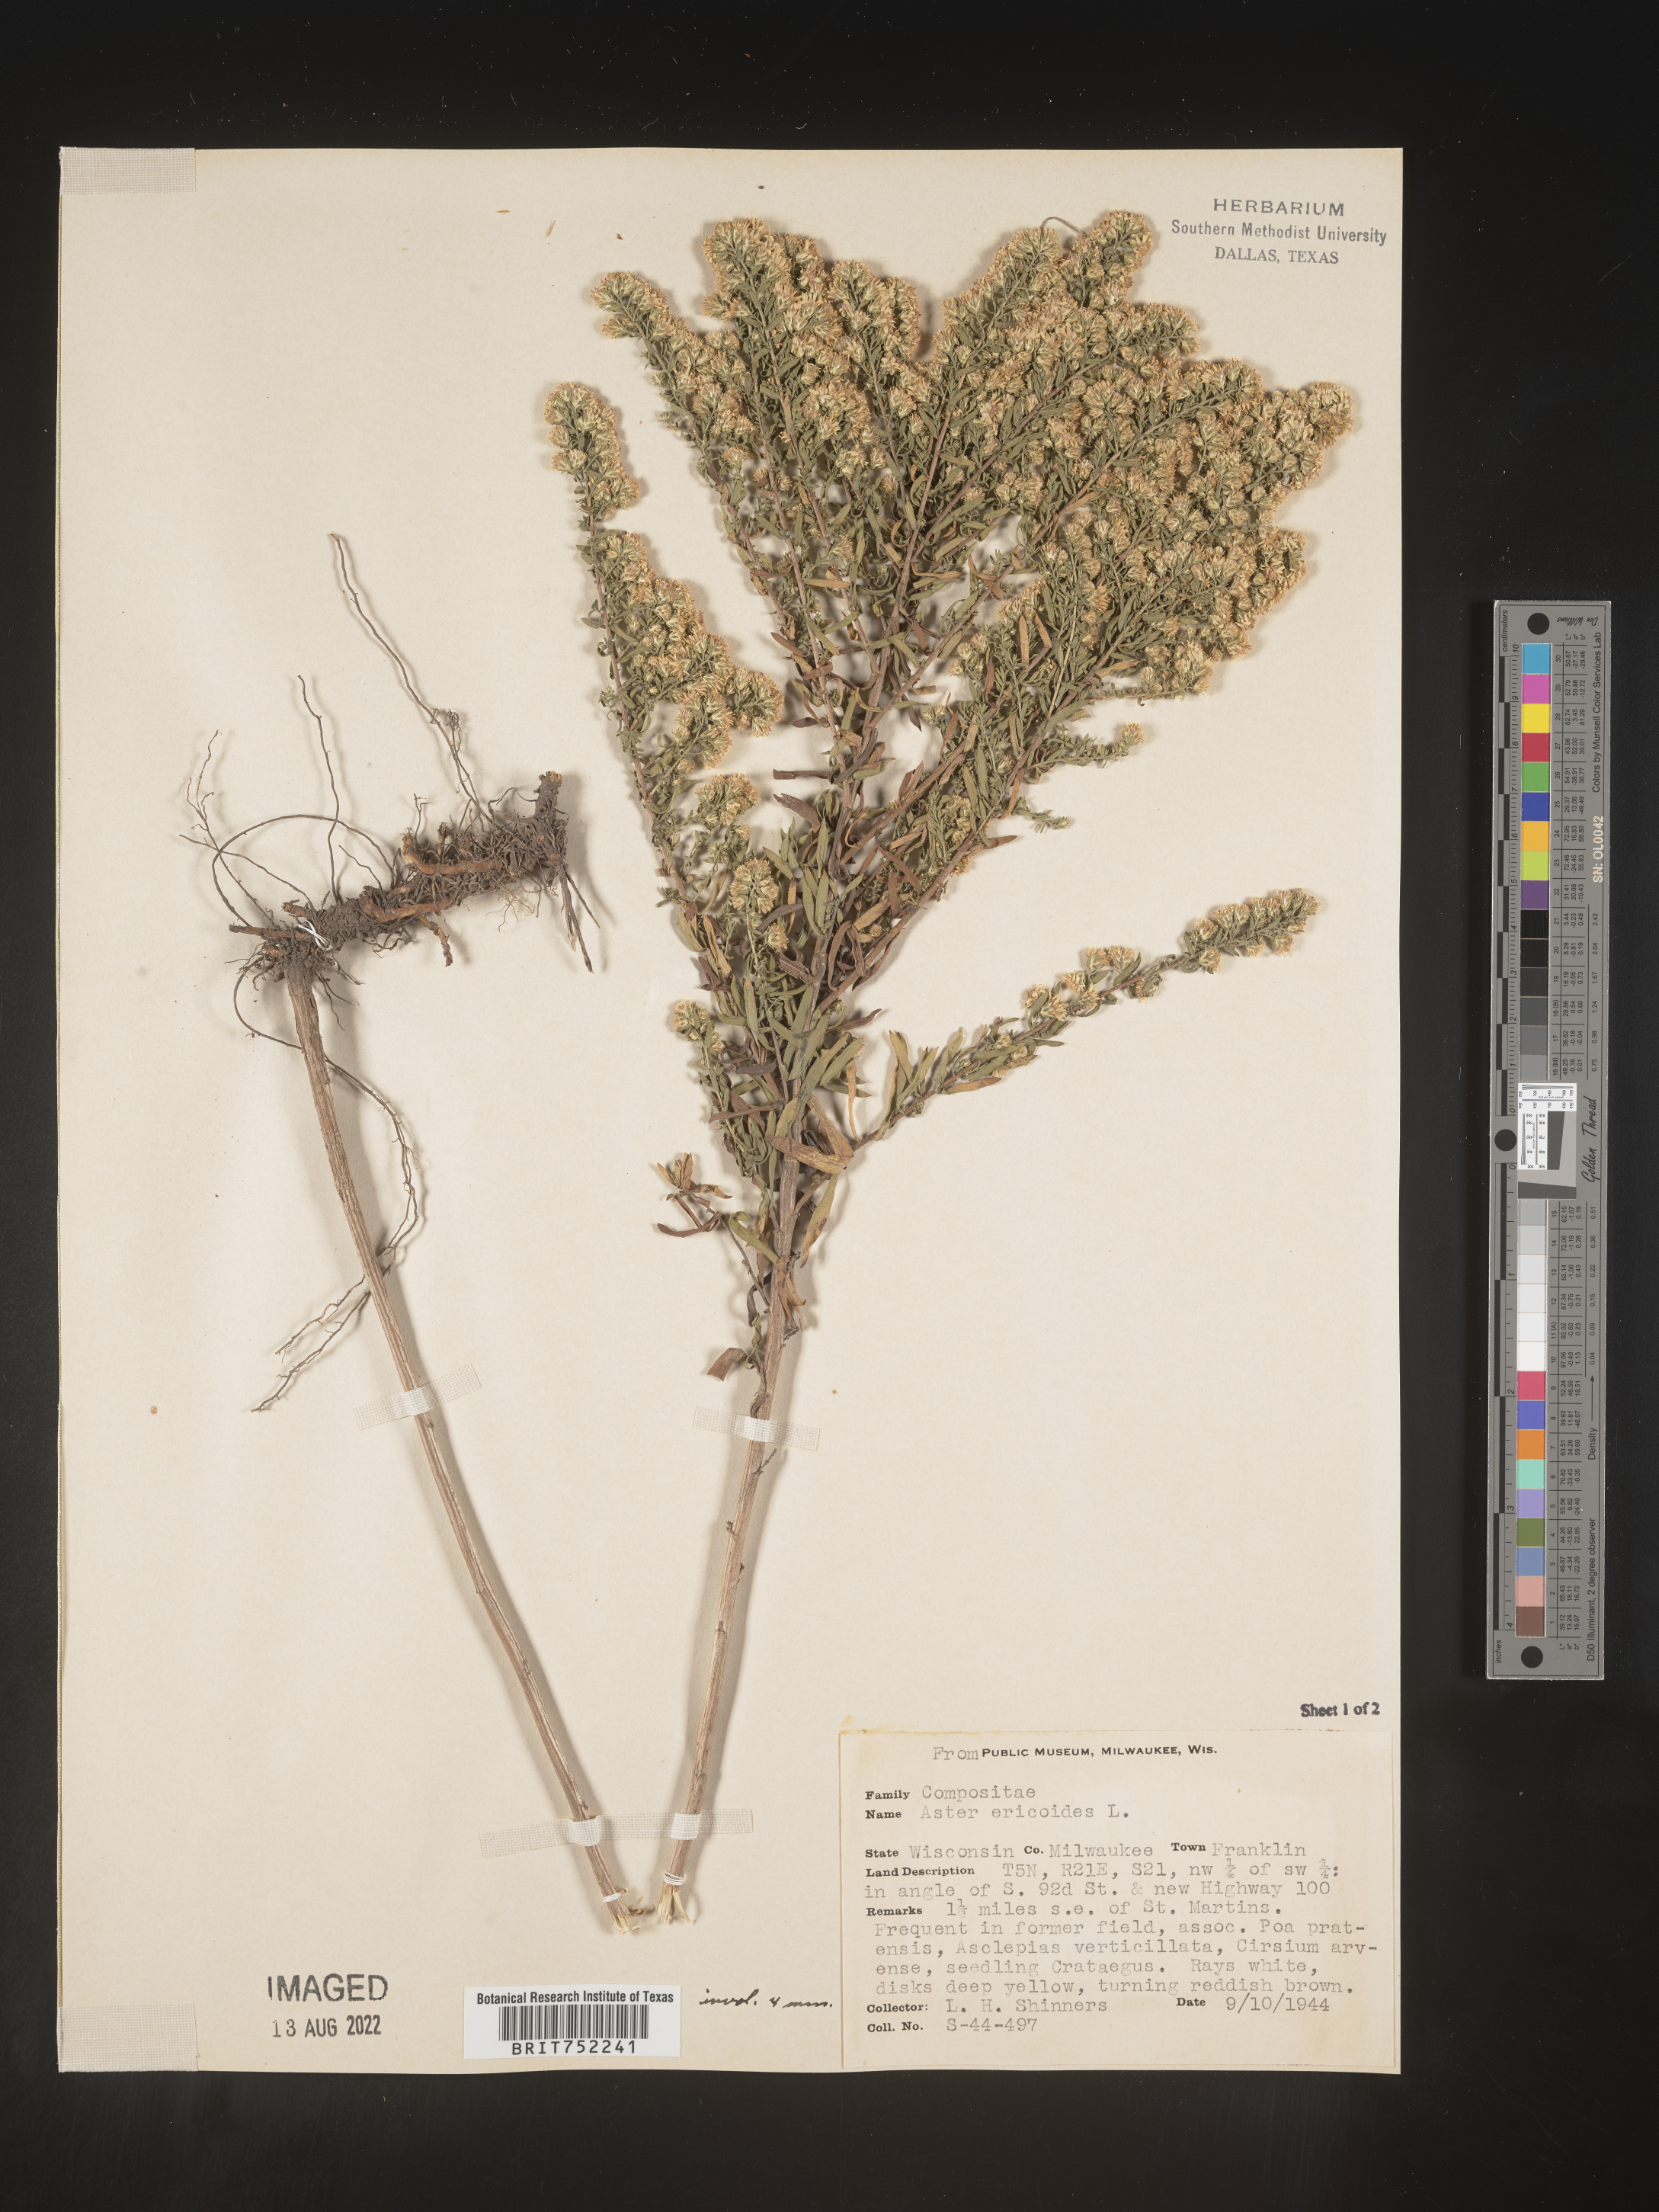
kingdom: Plantae
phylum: Tracheophyta
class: Magnoliopsida
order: Asterales
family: Asteraceae
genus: Symphyotrichum
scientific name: Symphyotrichum ericoides
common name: Heath aster
